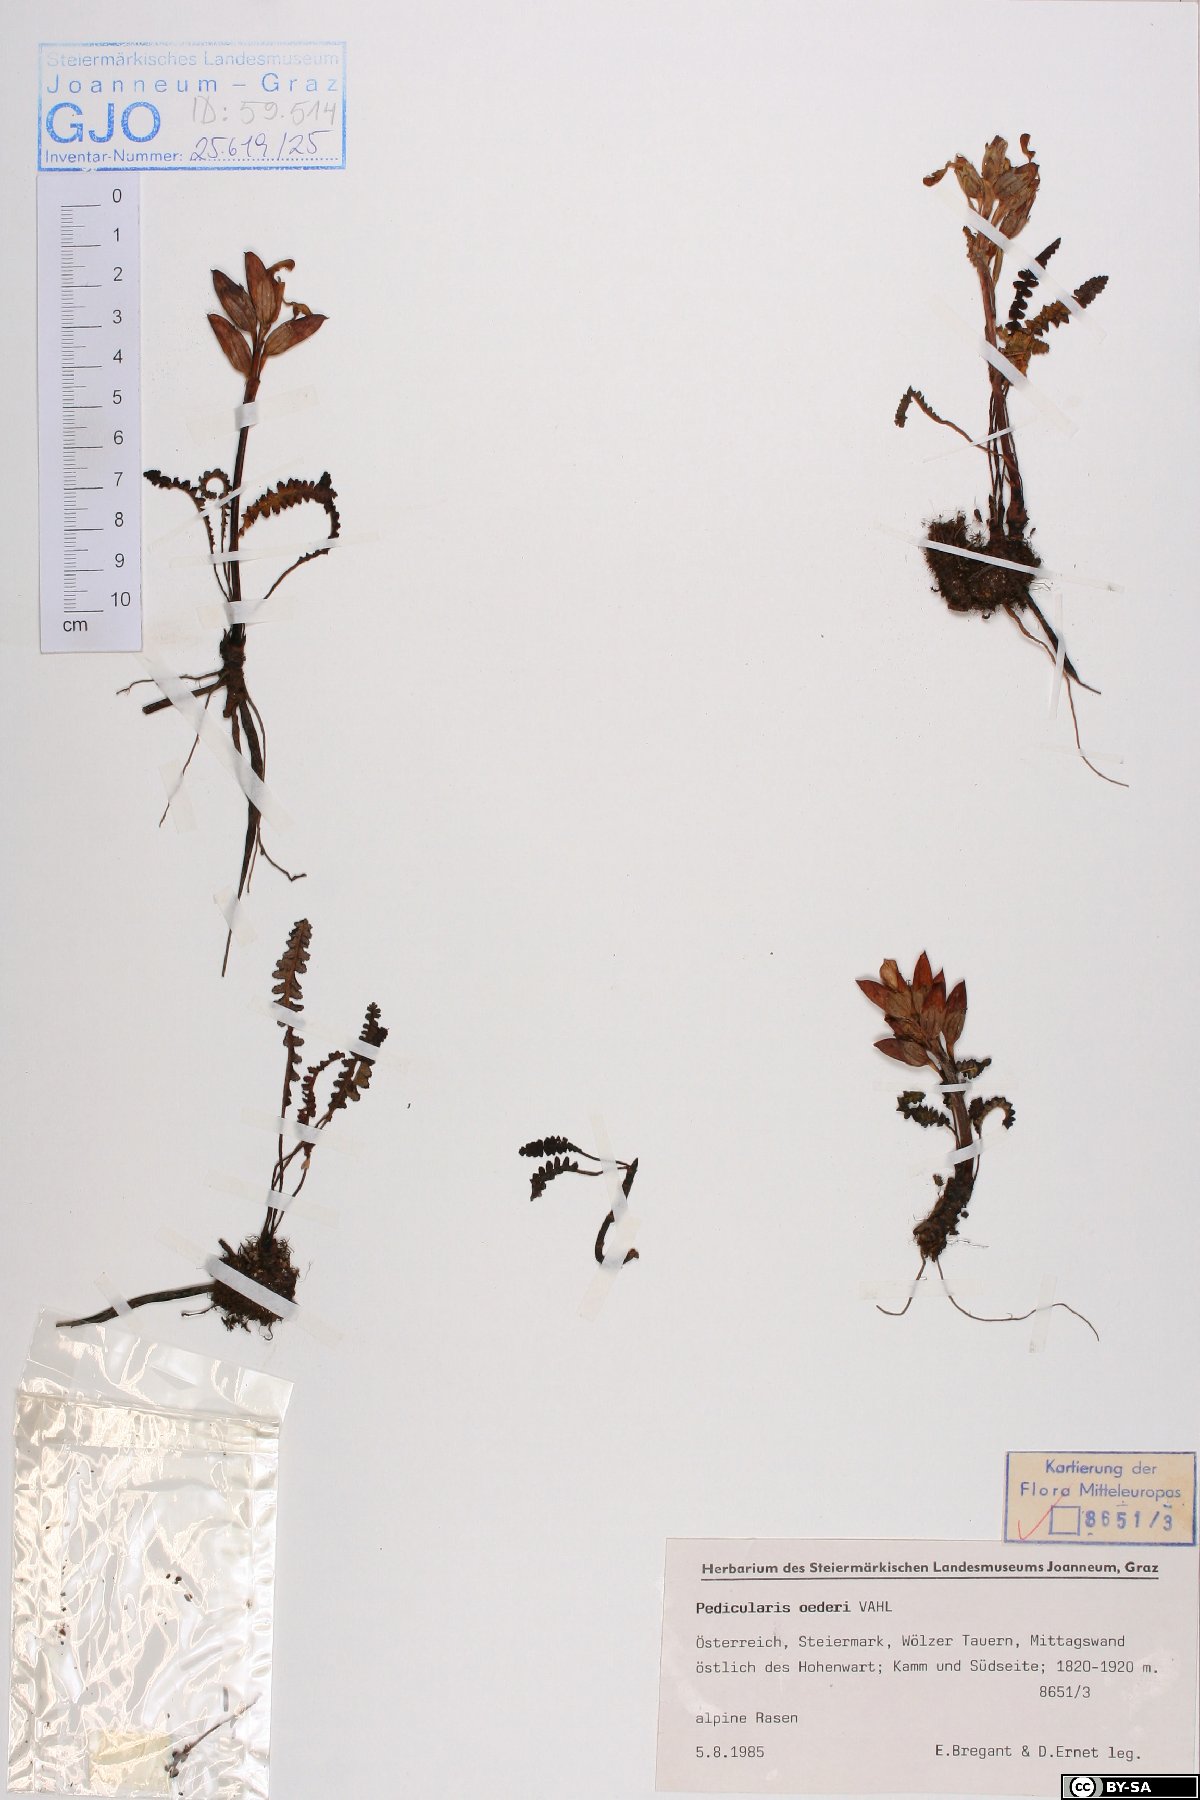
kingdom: Plantae
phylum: Tracheophyta
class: Magnoliopsida
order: Lamiales
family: Orobanchaceae
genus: Pedicularis
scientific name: Pedicularis oederi
